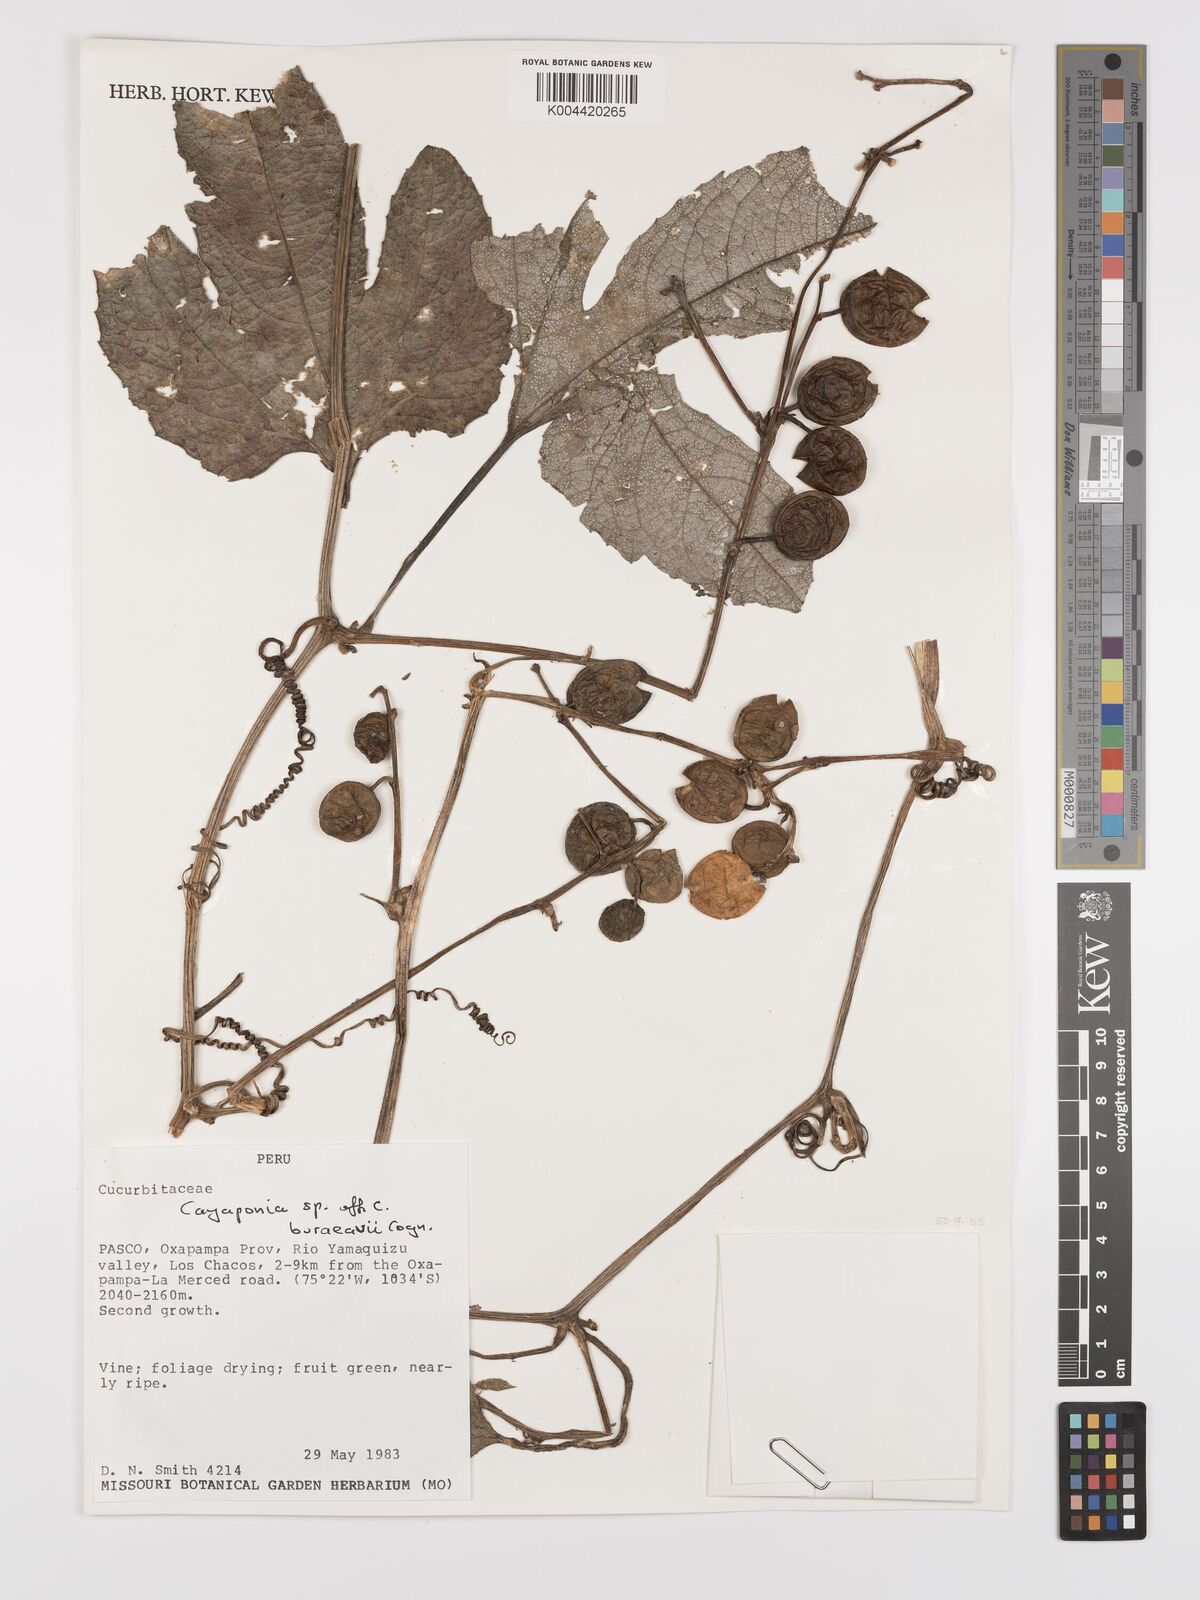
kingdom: Plantae
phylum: Tracheophyta
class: Magnoliopsida
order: Cucurbitales
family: Cucurbitaceae
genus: Cayaponia
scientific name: Cayaponia buraeavii
